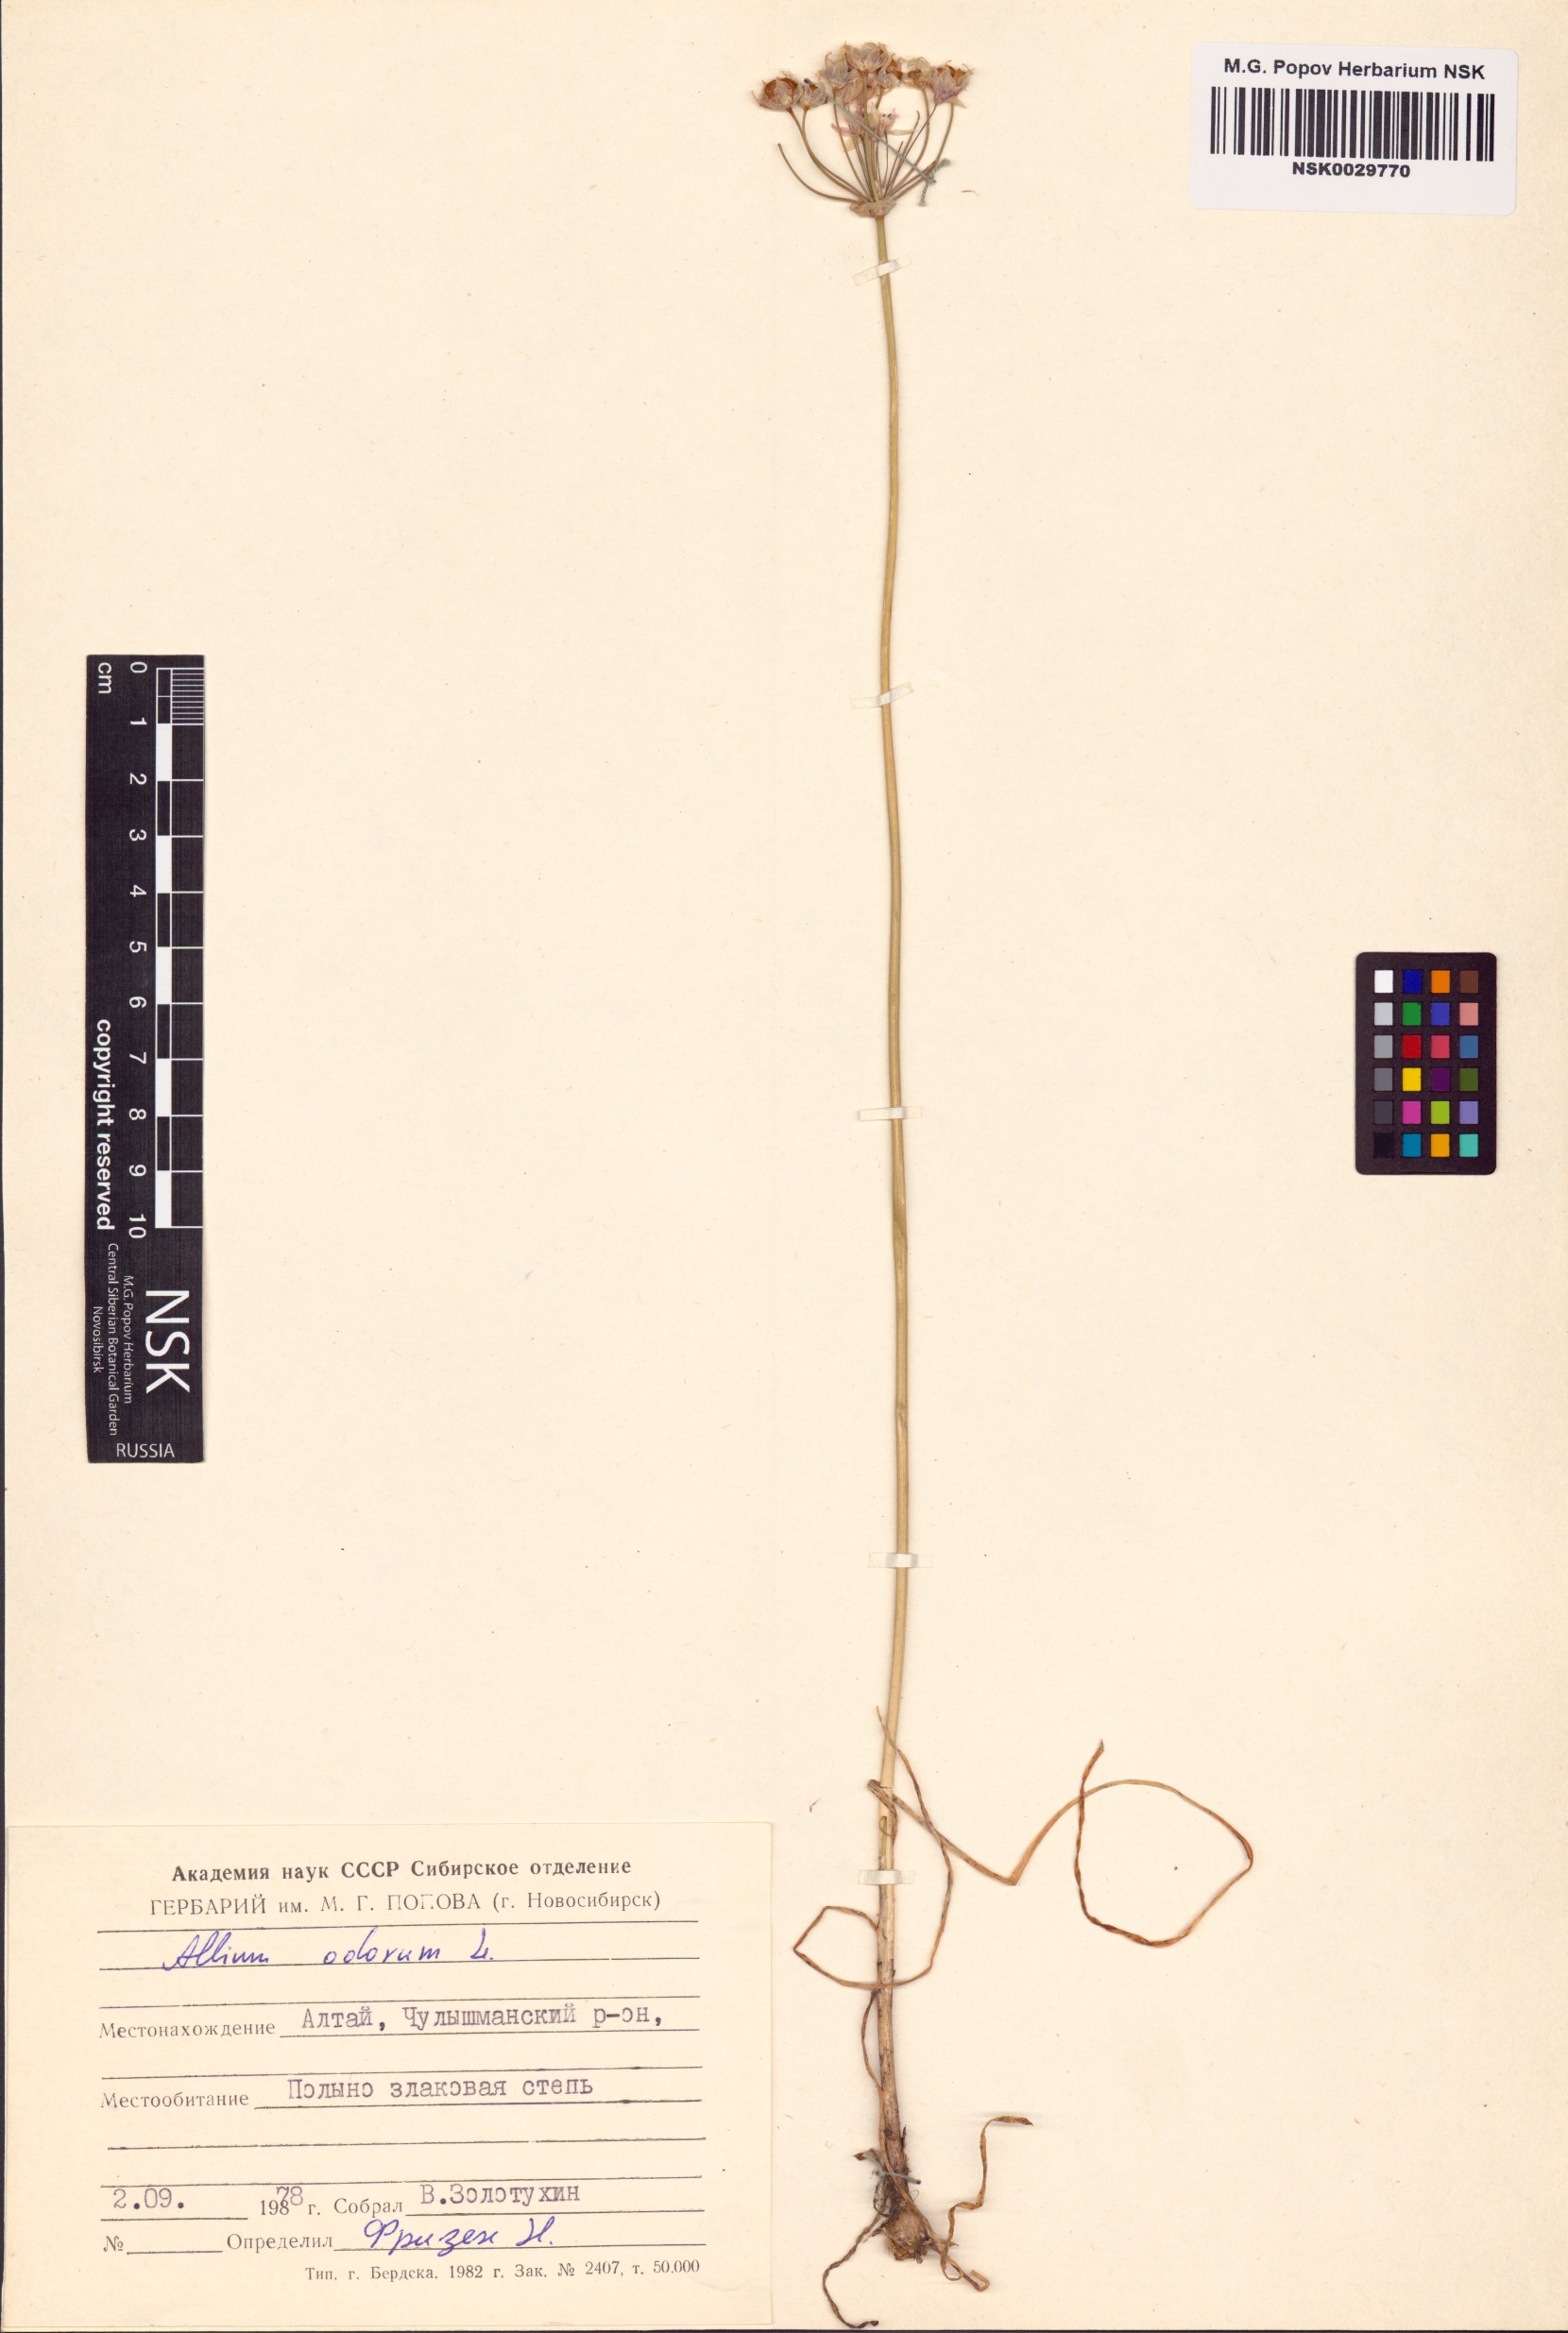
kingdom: Plantae
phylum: Tracheophyta
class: Liliopsida
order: Asparagales
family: Amaryllidaceae
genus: Allium
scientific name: Allium ramosum
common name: Fragrant garlic
